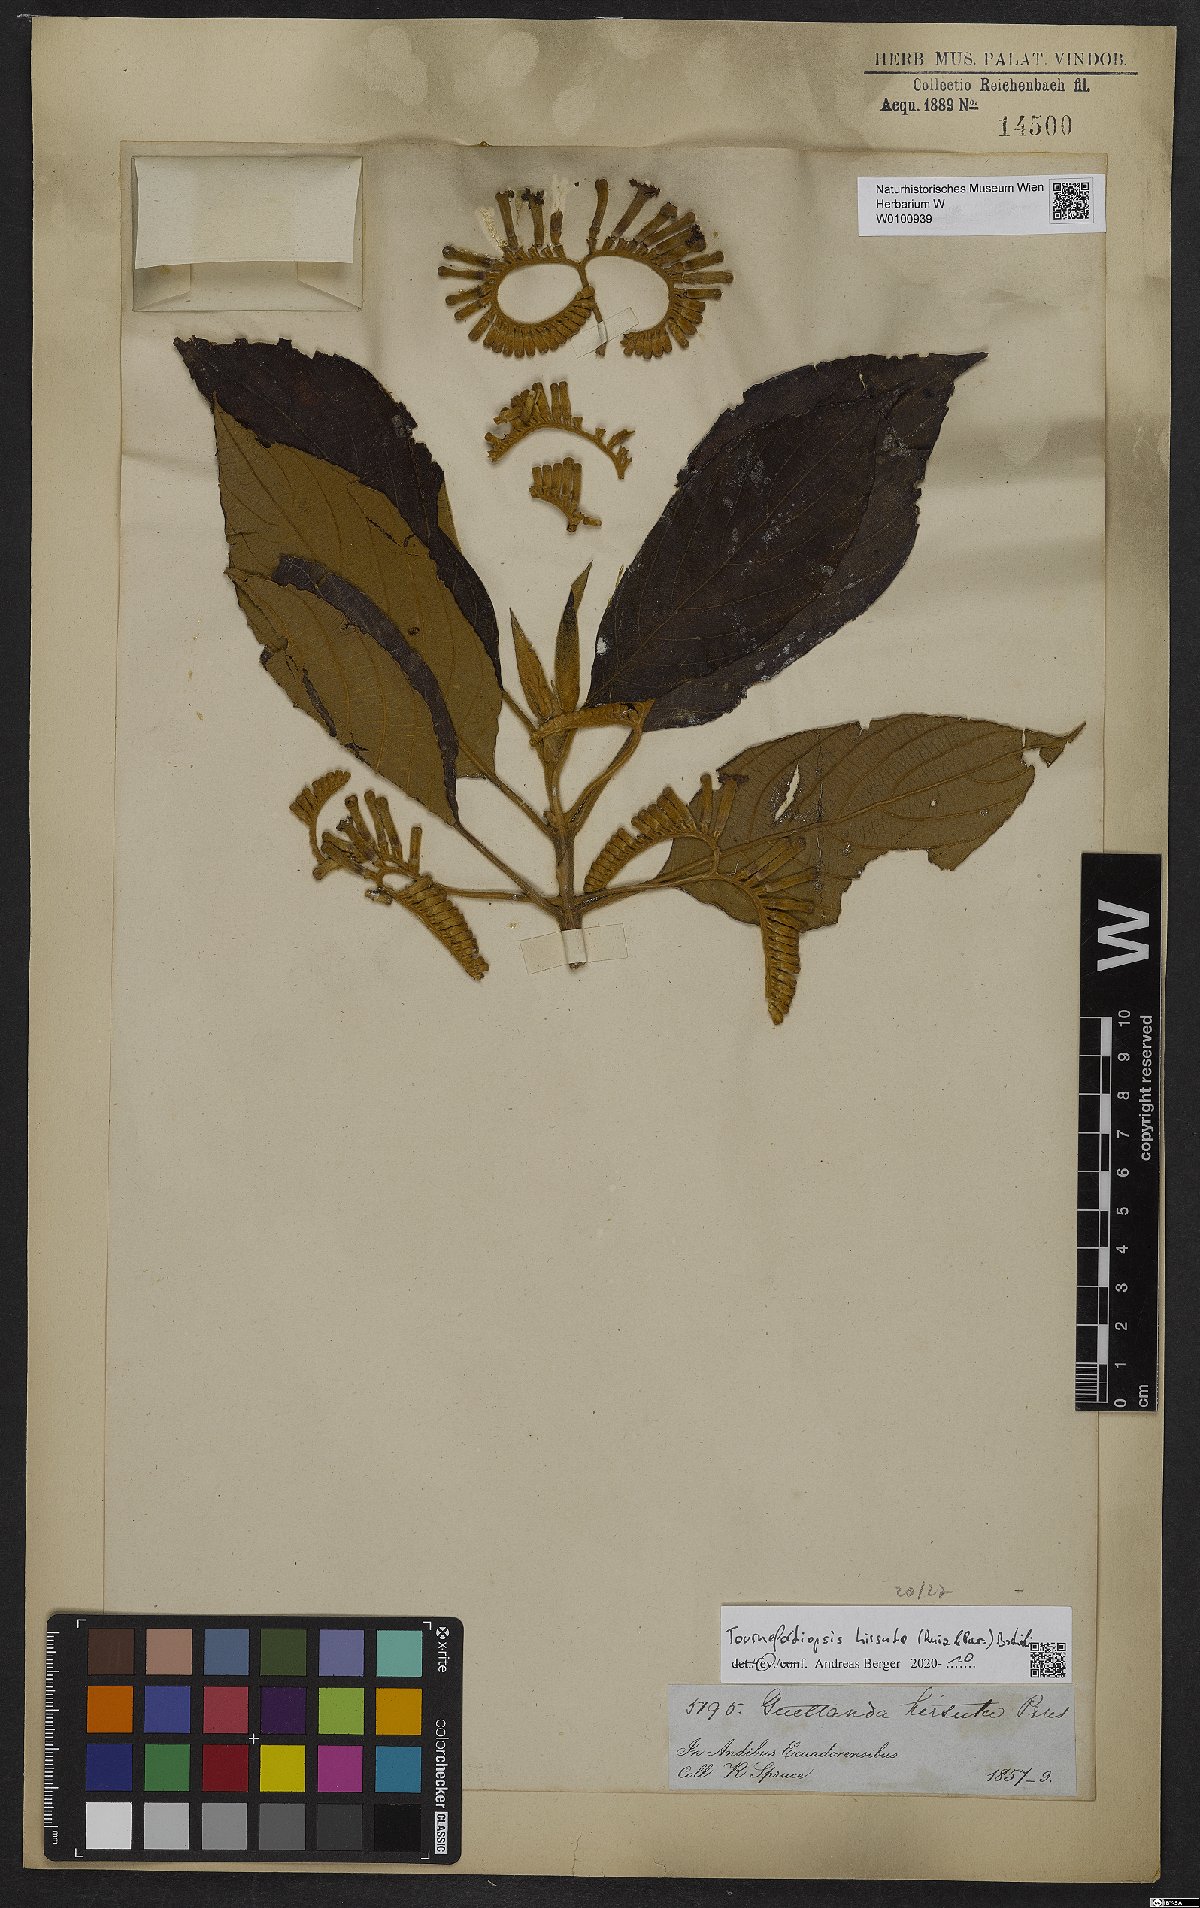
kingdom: Plantae
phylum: Tracheophyta
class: Magnoliopsida
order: Gentianales
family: Rubiaceae
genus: Tournefortiopsis
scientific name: Tournefortiopsis hirsuta
